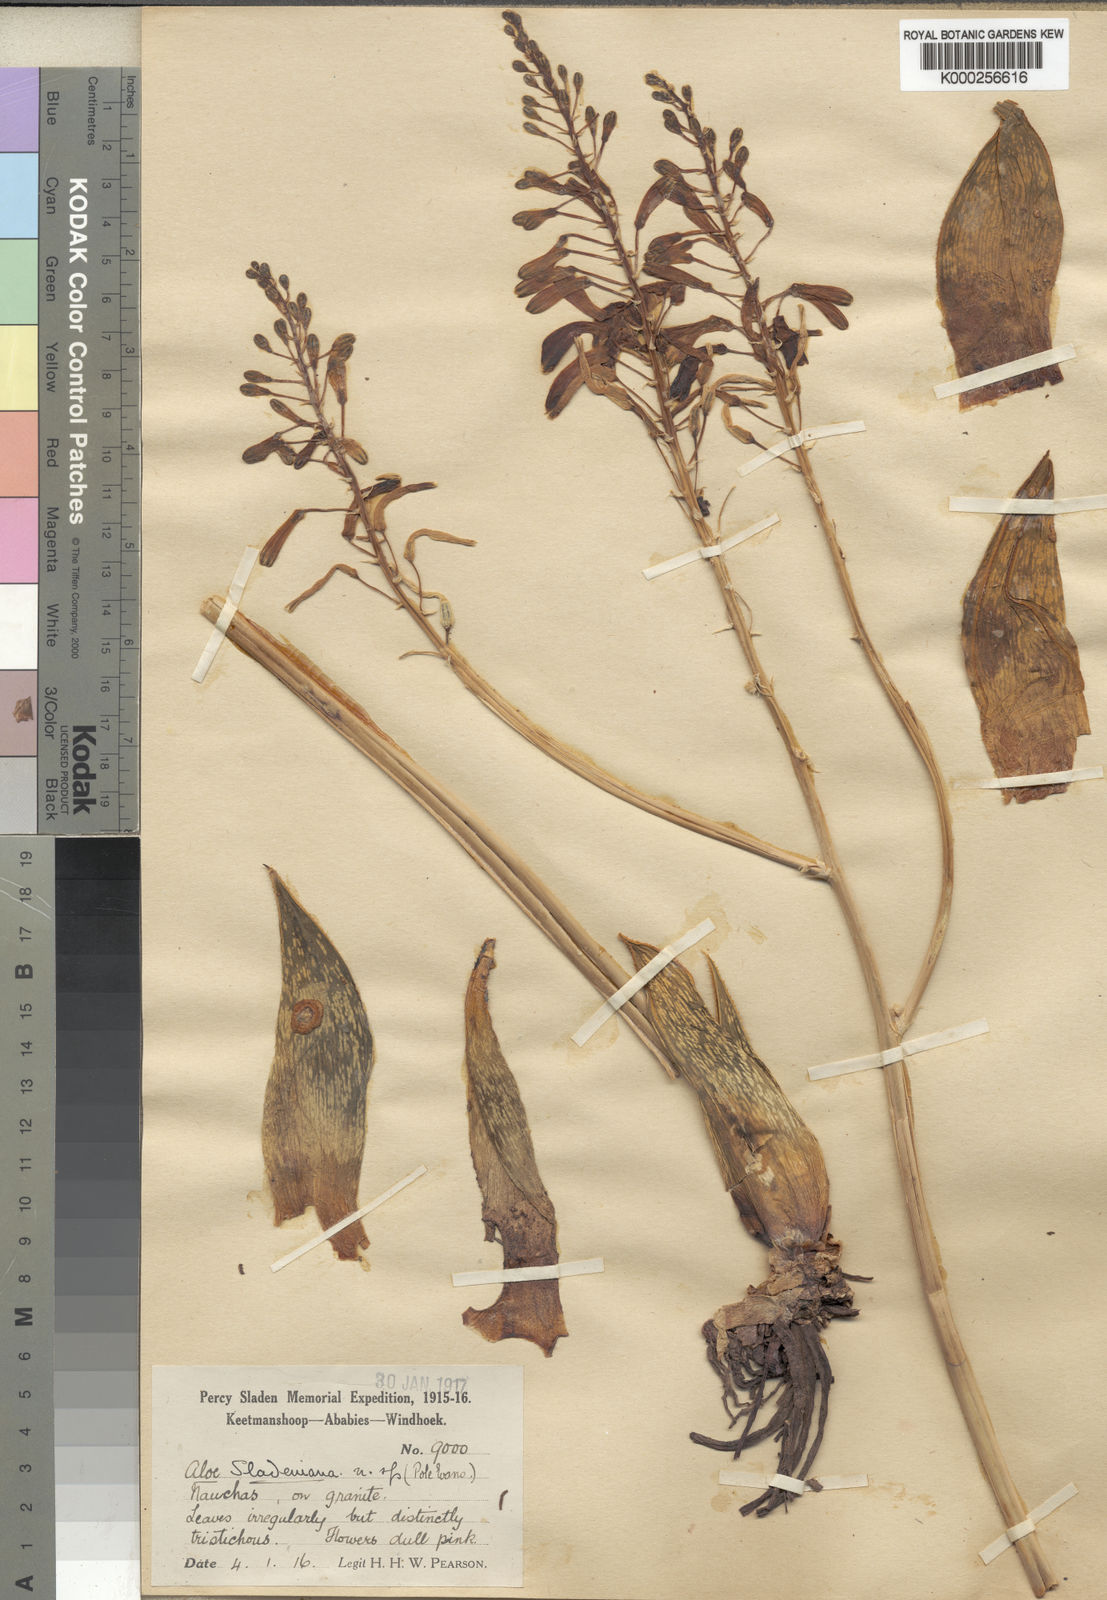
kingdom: Plantae
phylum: Tracheophyta
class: Liliopsida
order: Asparagales
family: Asphodelaceae
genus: Gonialoe
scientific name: Gonialoe sladeniana
